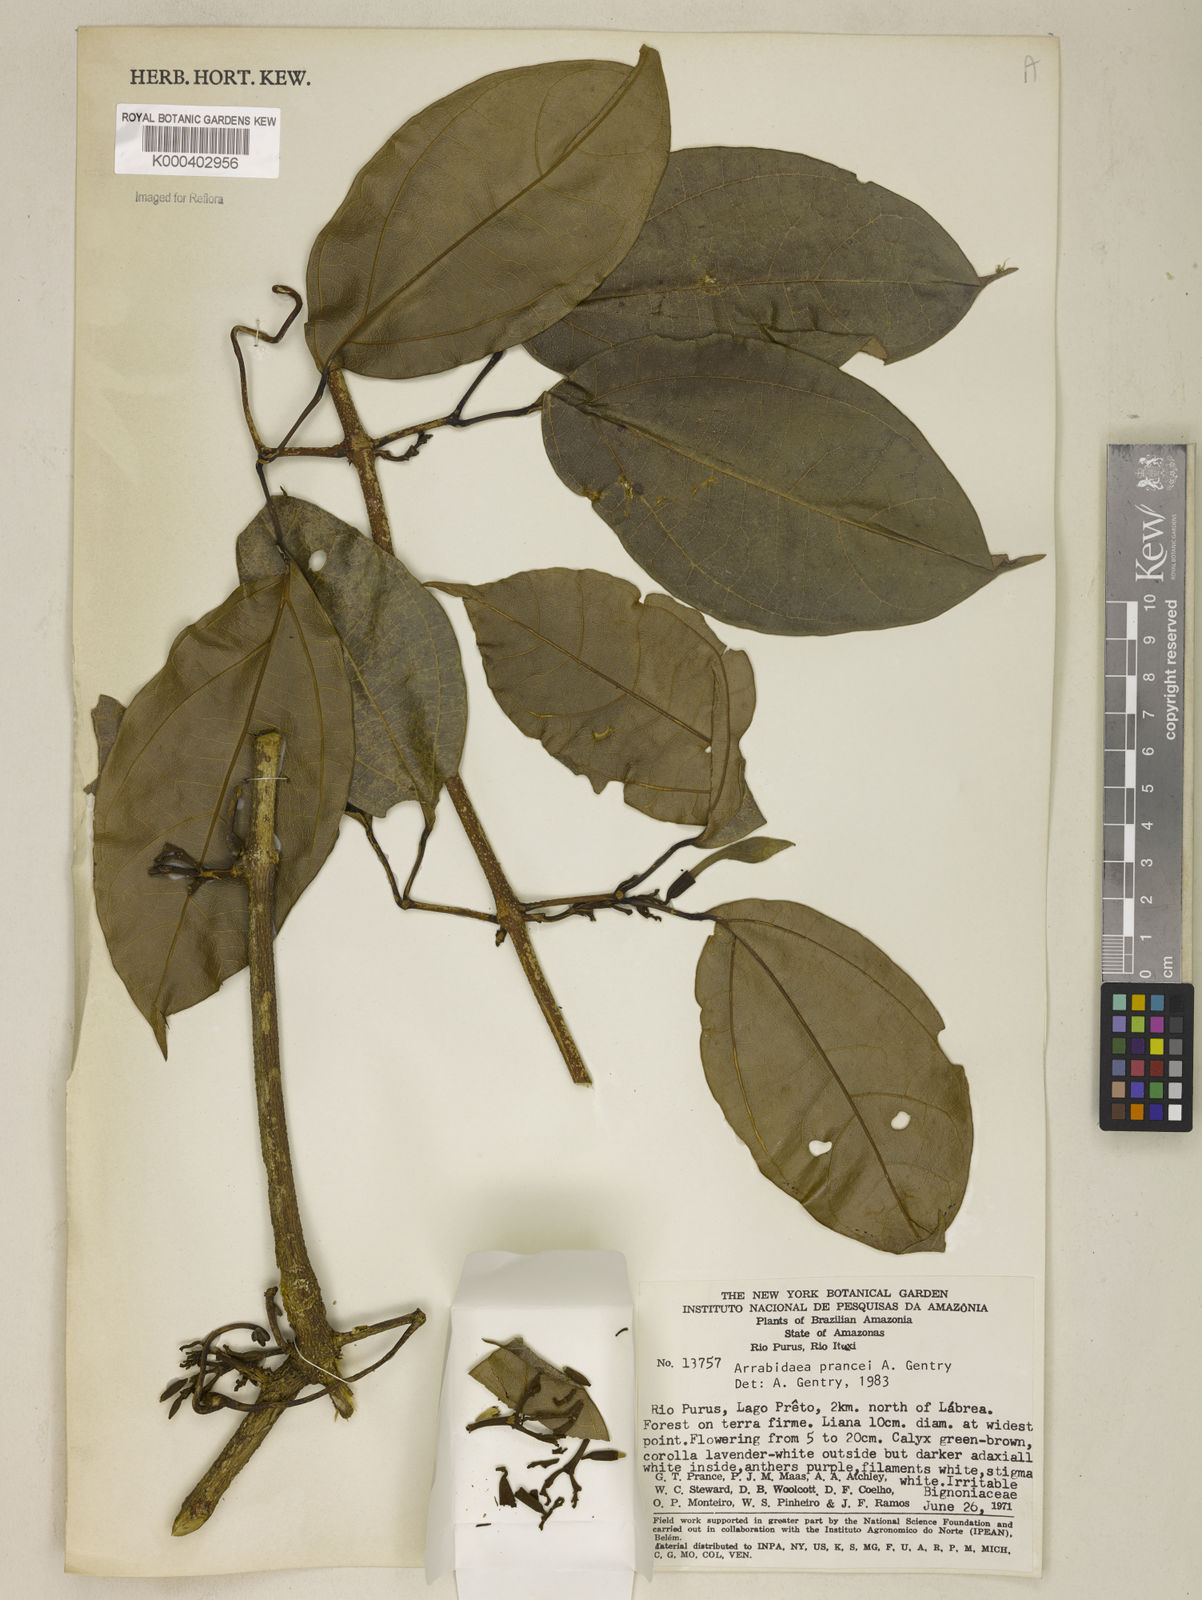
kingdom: Plantae
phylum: Tracheophyta
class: Magnoliopsida
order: Lamiales
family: Bignoniaceae
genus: Fridericia
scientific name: Fridericia prancei
